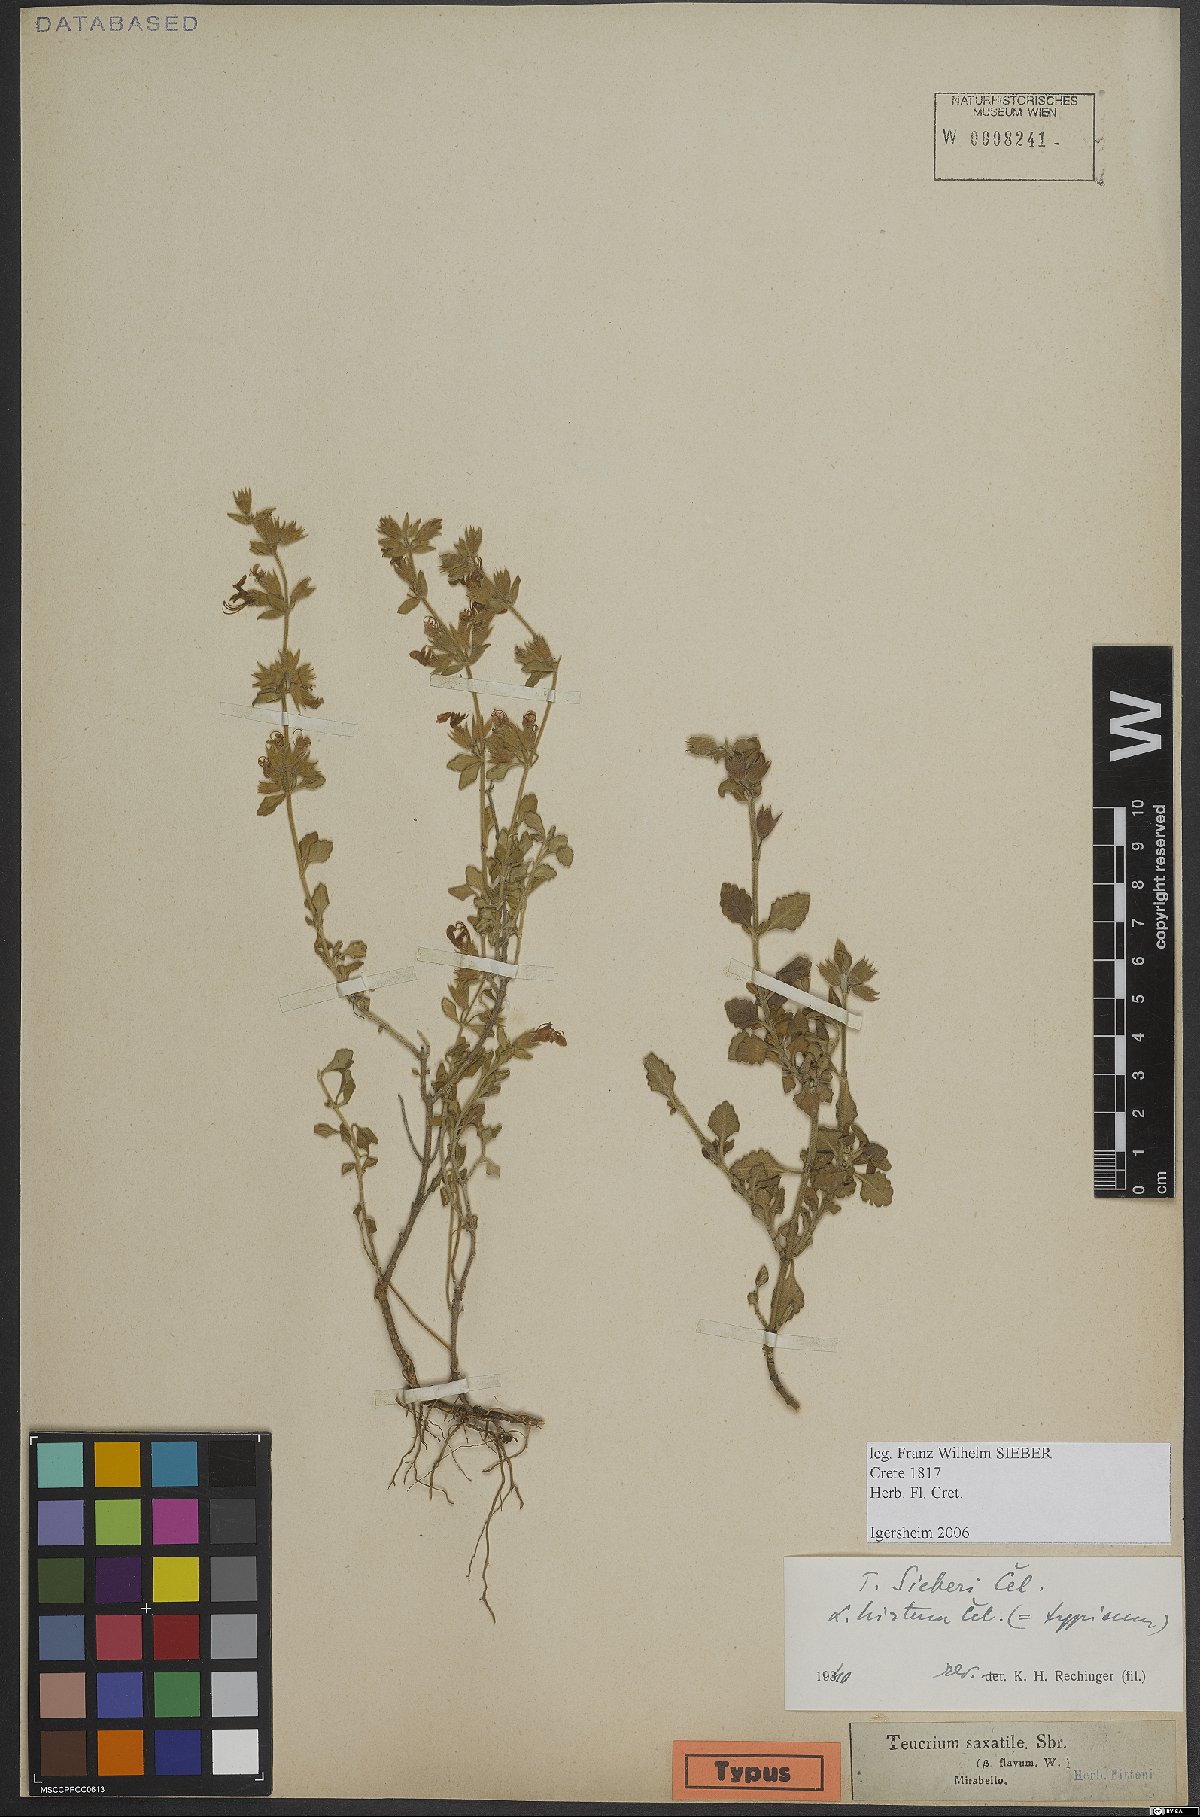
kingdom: Plantae
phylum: Tracheophyta
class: Magnoliopsida
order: Lamiales
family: Lamiaceae
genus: Teucrium
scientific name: Teucrium divaricatum
